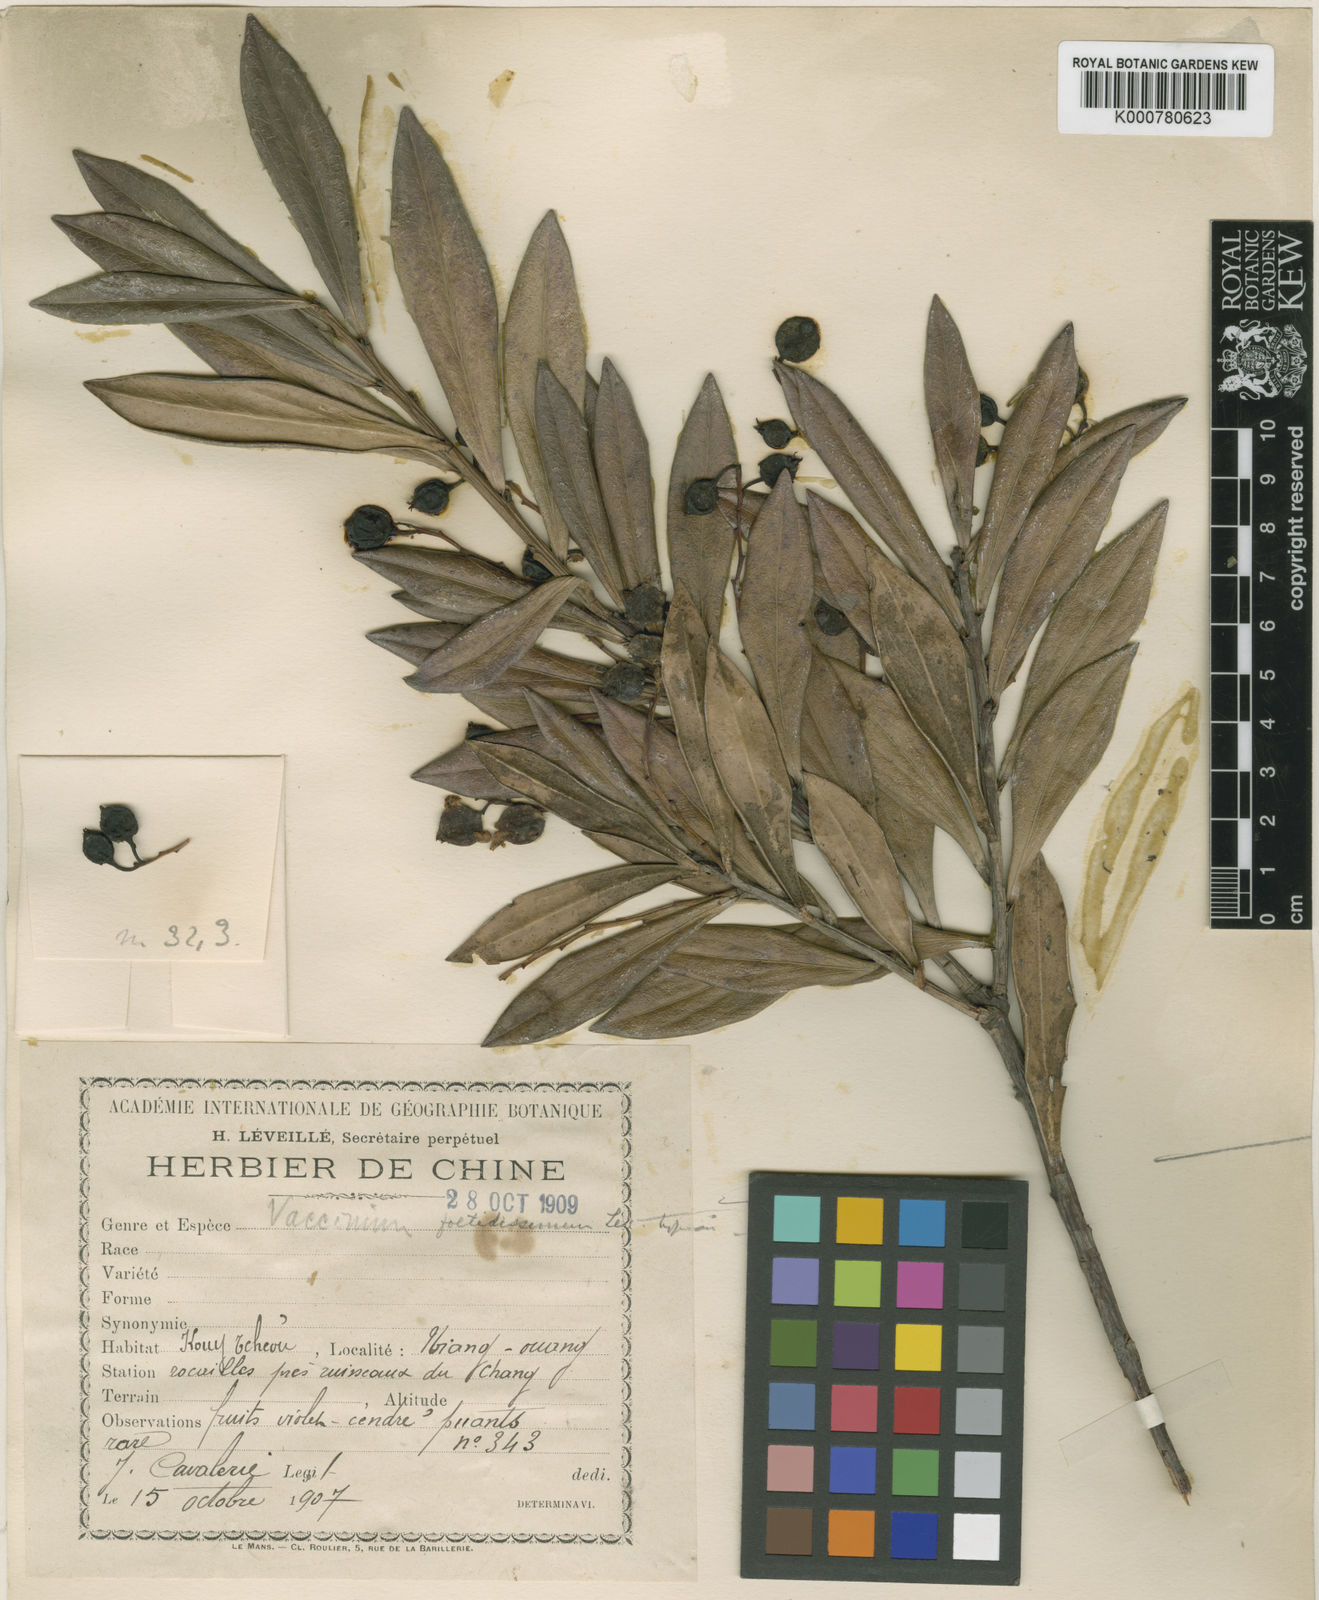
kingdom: Plantae
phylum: Tracheophyta
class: Magnoliopsida
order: Ericales
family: Ericaceae
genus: Vaccinium
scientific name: Vaccinium
